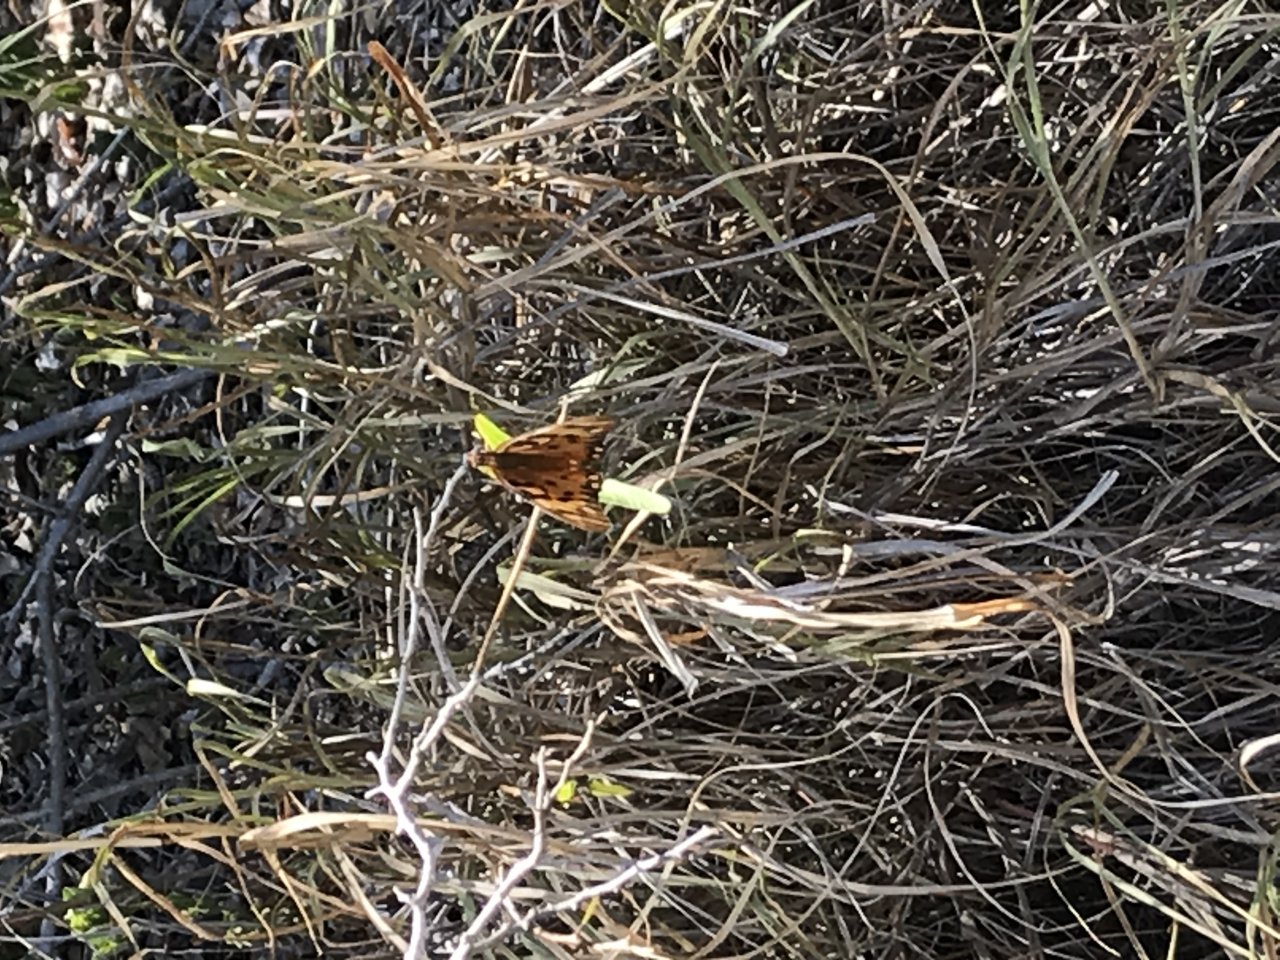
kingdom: Animalia
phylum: Arthropoda
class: Insecta
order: Lepidoptera
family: Nymphalidae
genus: Dione
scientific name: Dione vanillae
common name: Gulf Fritillary
